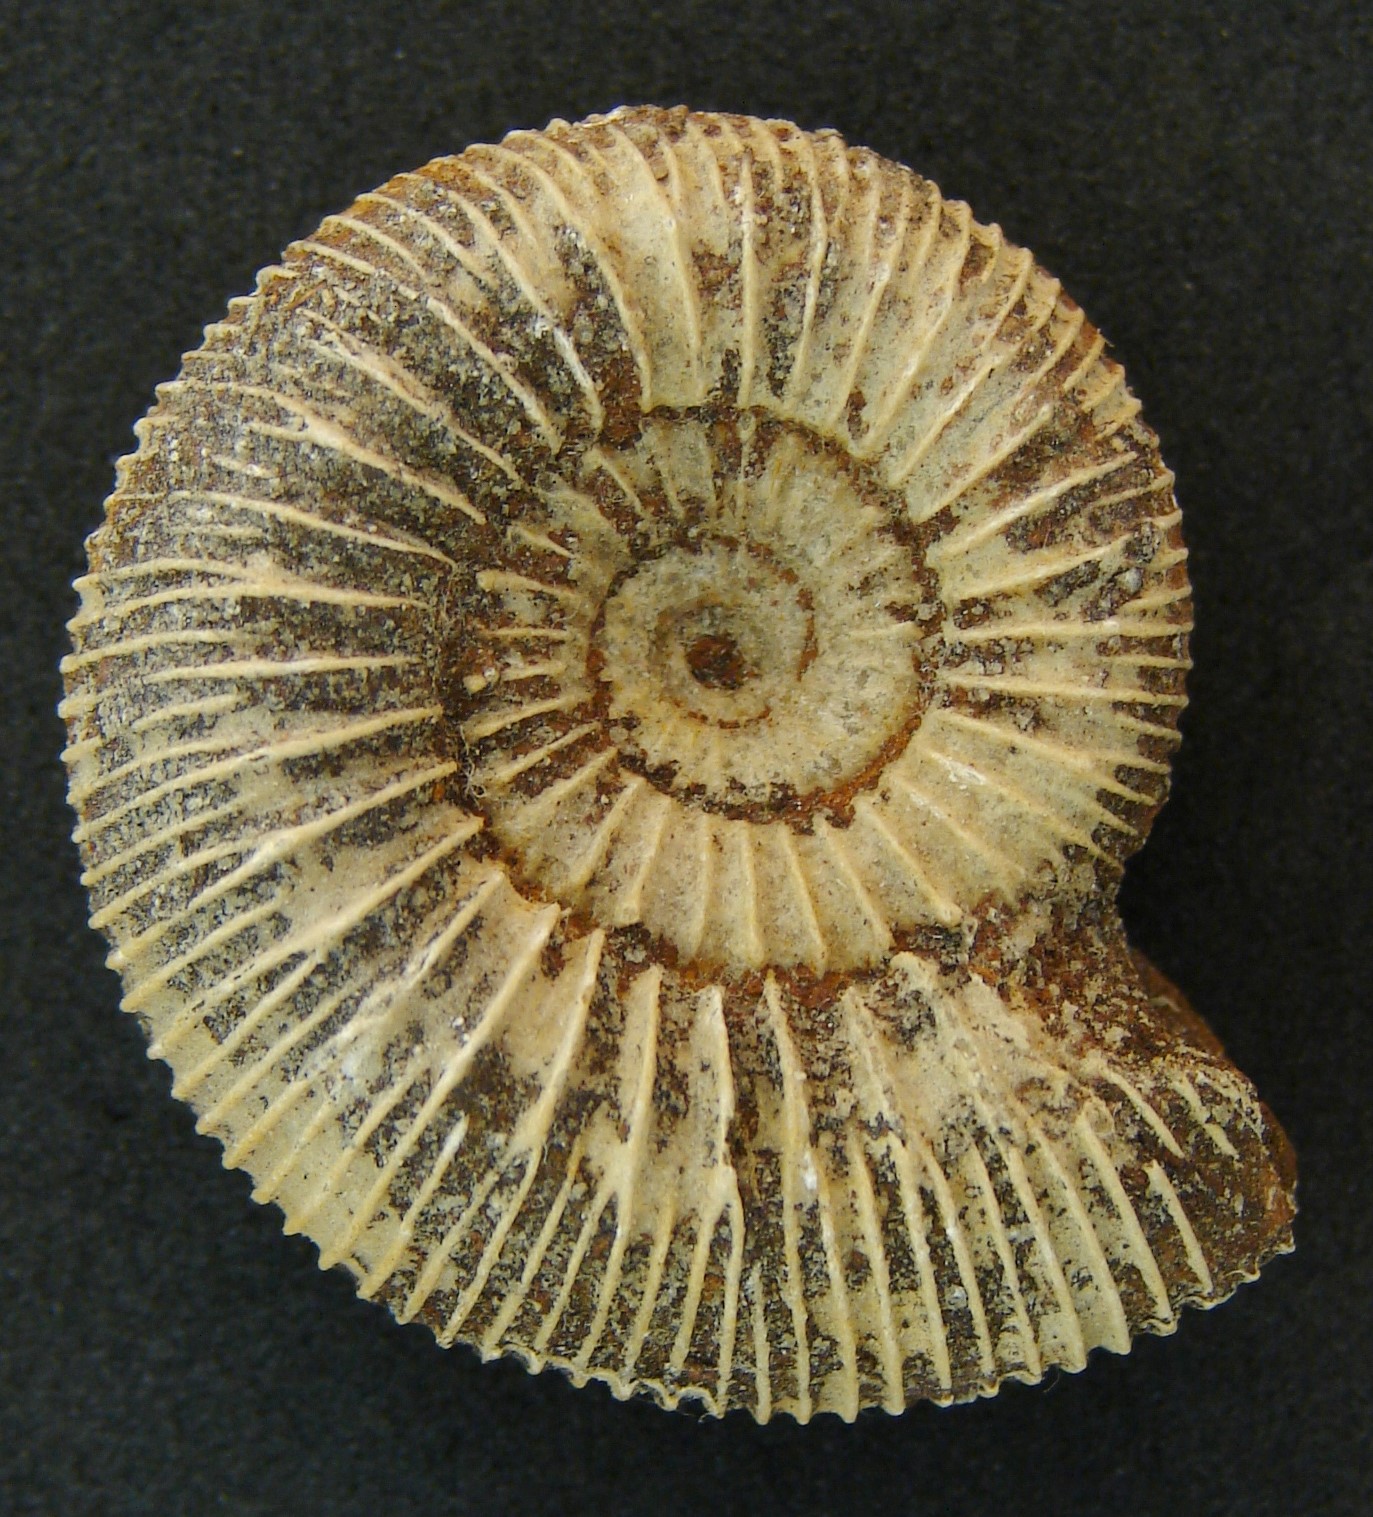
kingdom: Animalia
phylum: Mollusca
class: Cephalopoda
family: Dactylioceratidae
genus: Dactylioceras
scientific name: Dactylioceras
